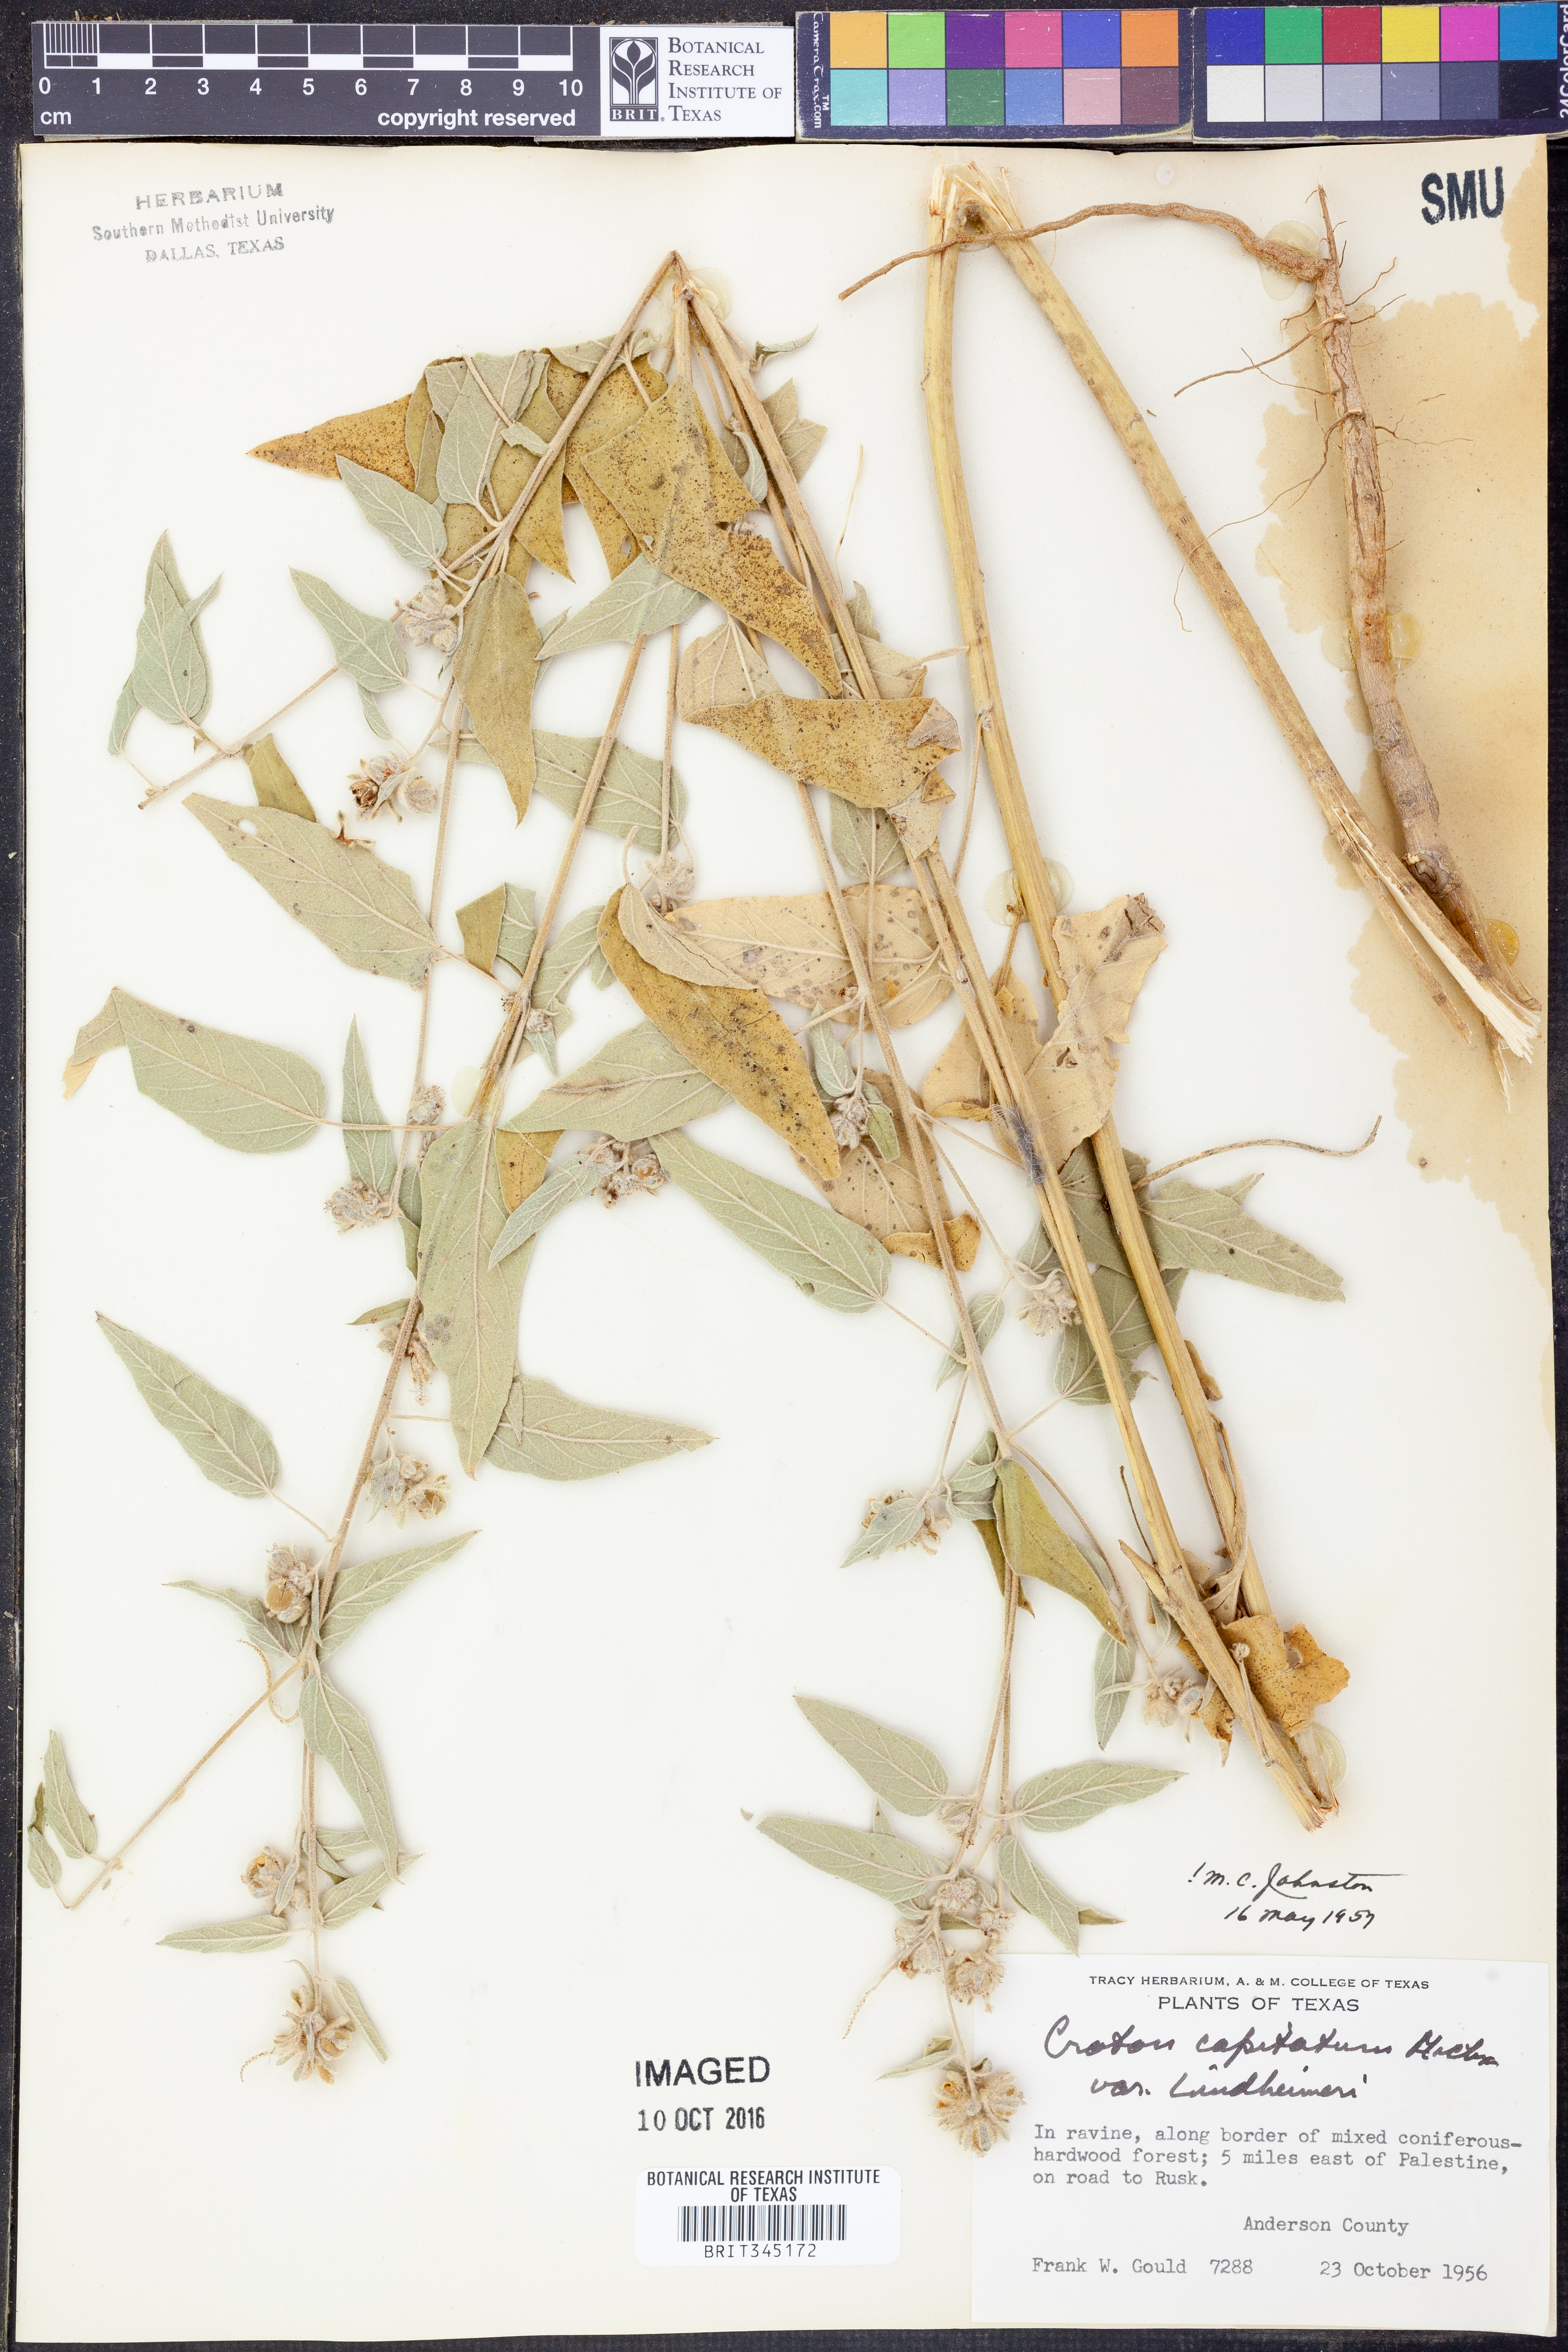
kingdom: Plantae
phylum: Tracheophyta
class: Magnoliopsida
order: Malpighiales
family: Euphorbiaceae
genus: Croton
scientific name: Croton lindheimeri
